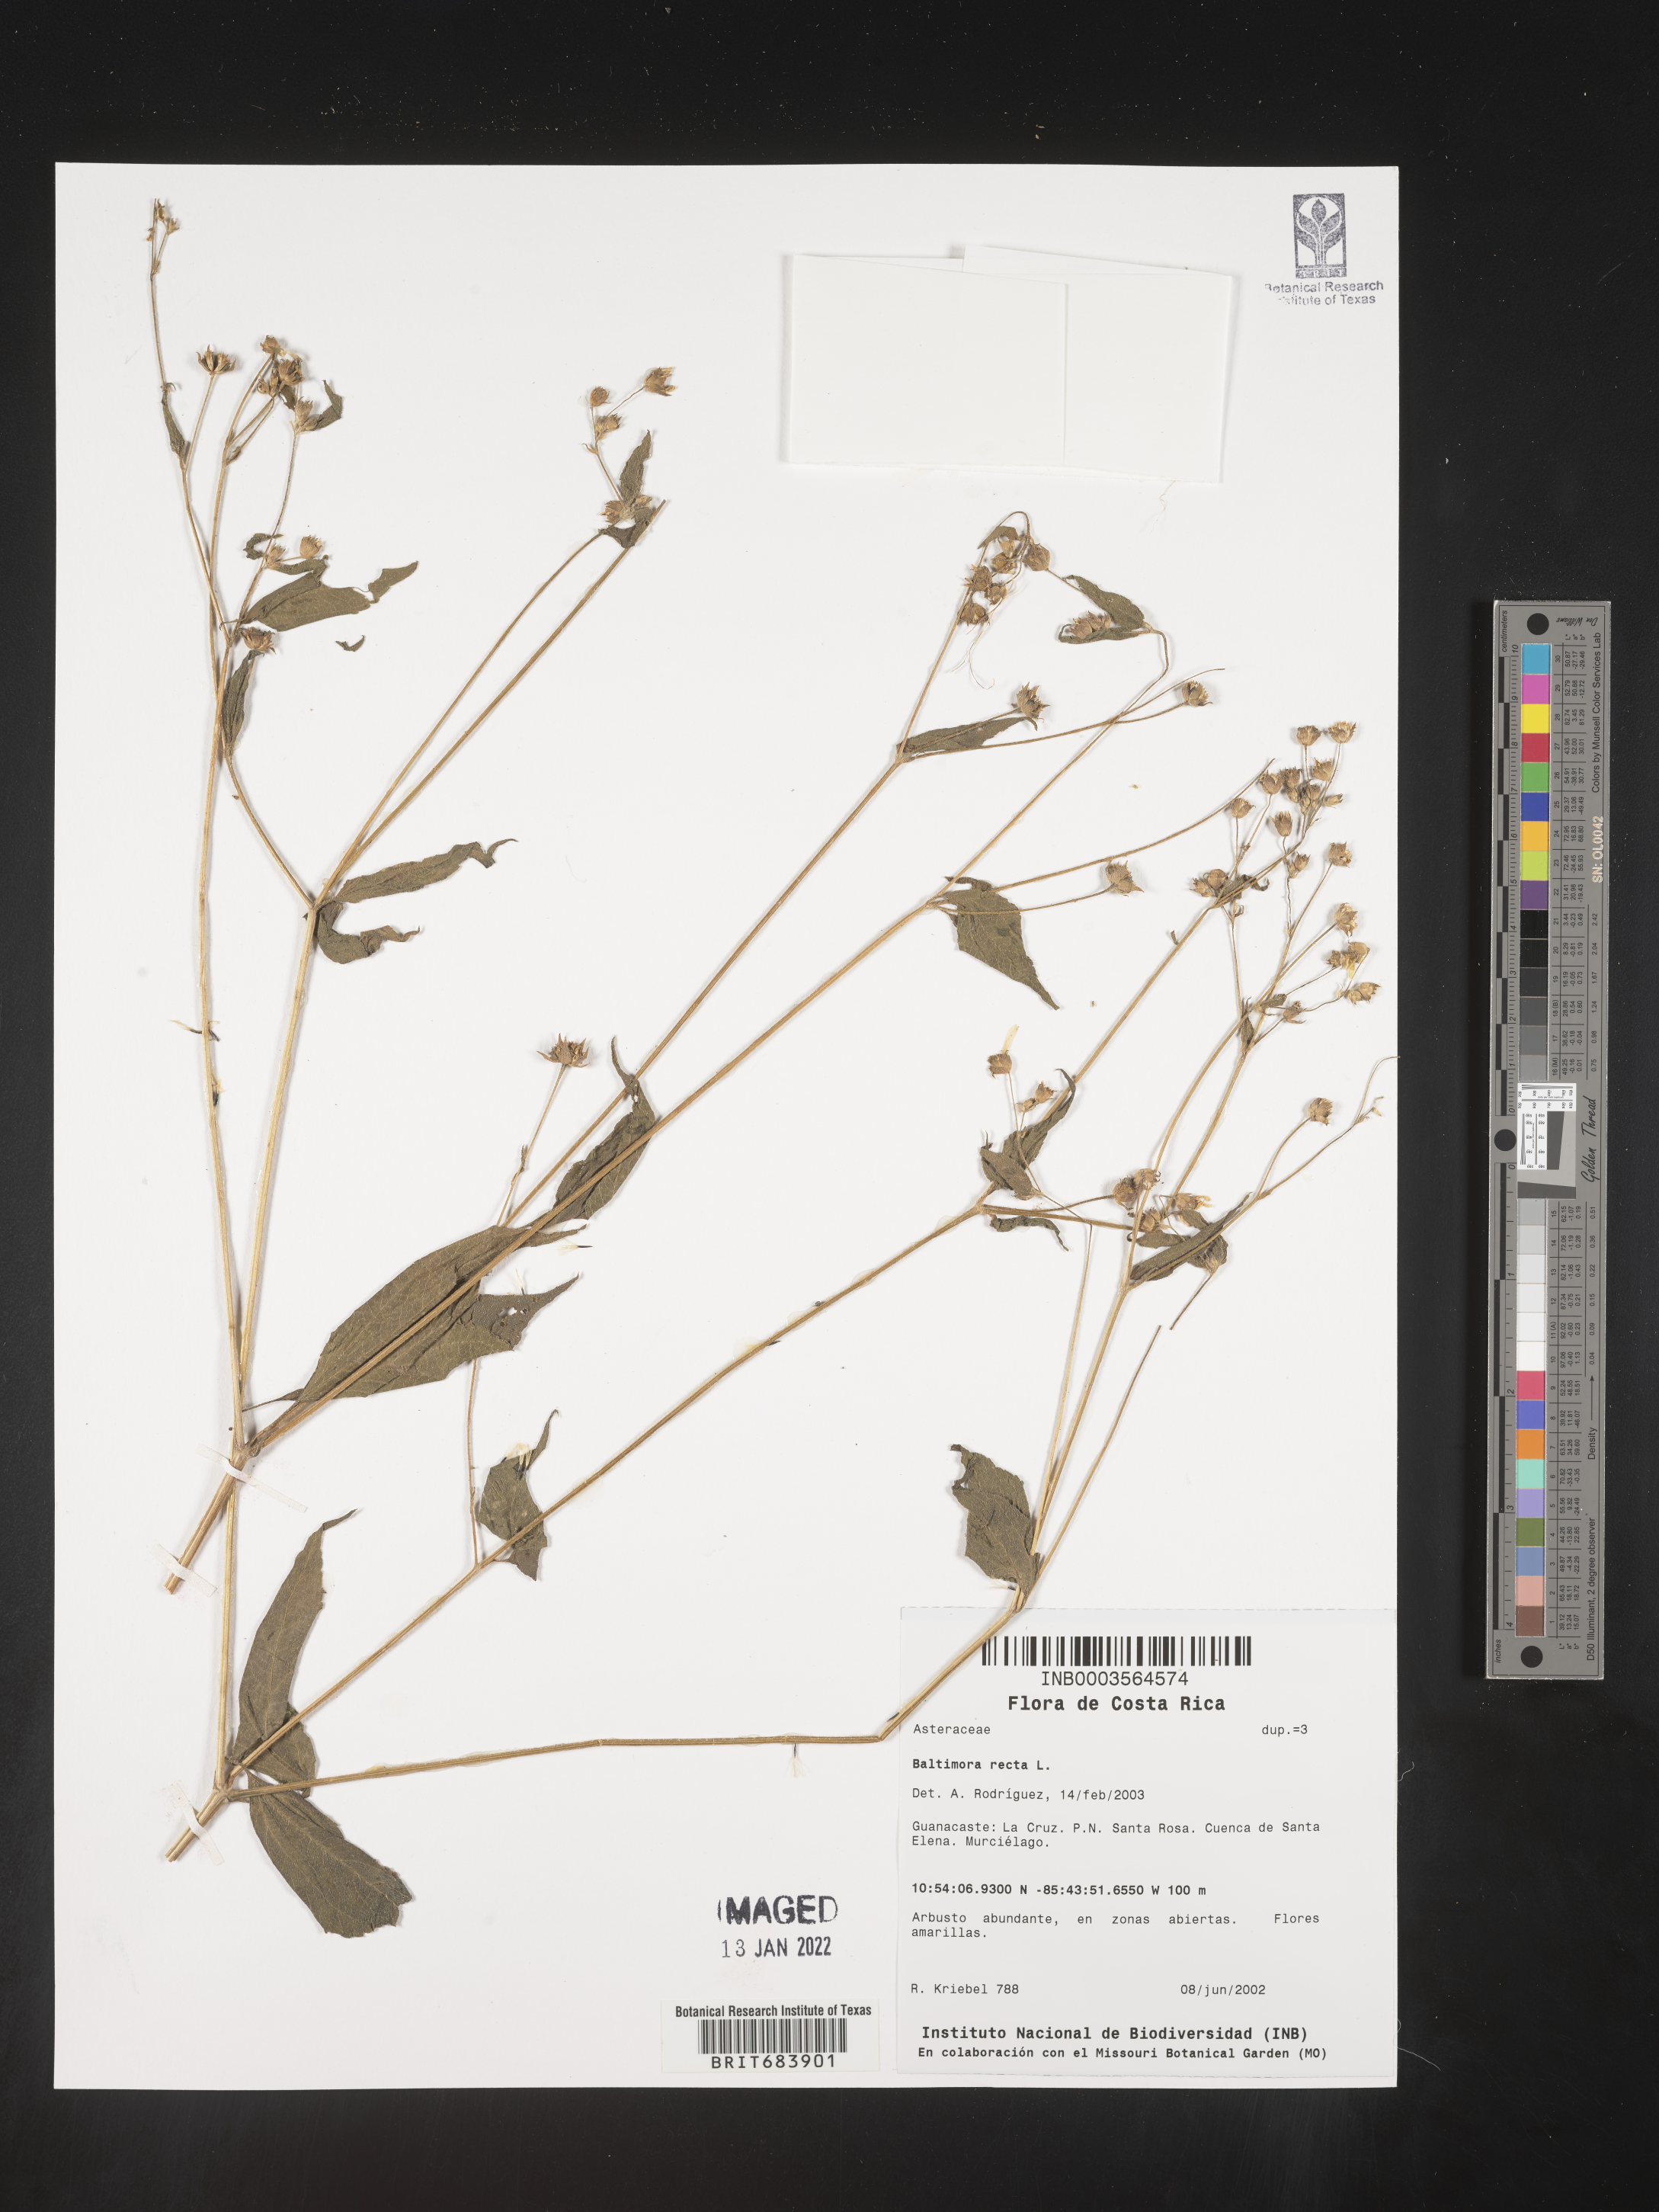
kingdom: Plantae
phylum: Tracheophyta
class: Magnoliopsida
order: Asterales
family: Asteraceae
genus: Baltimora
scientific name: Baltimora
